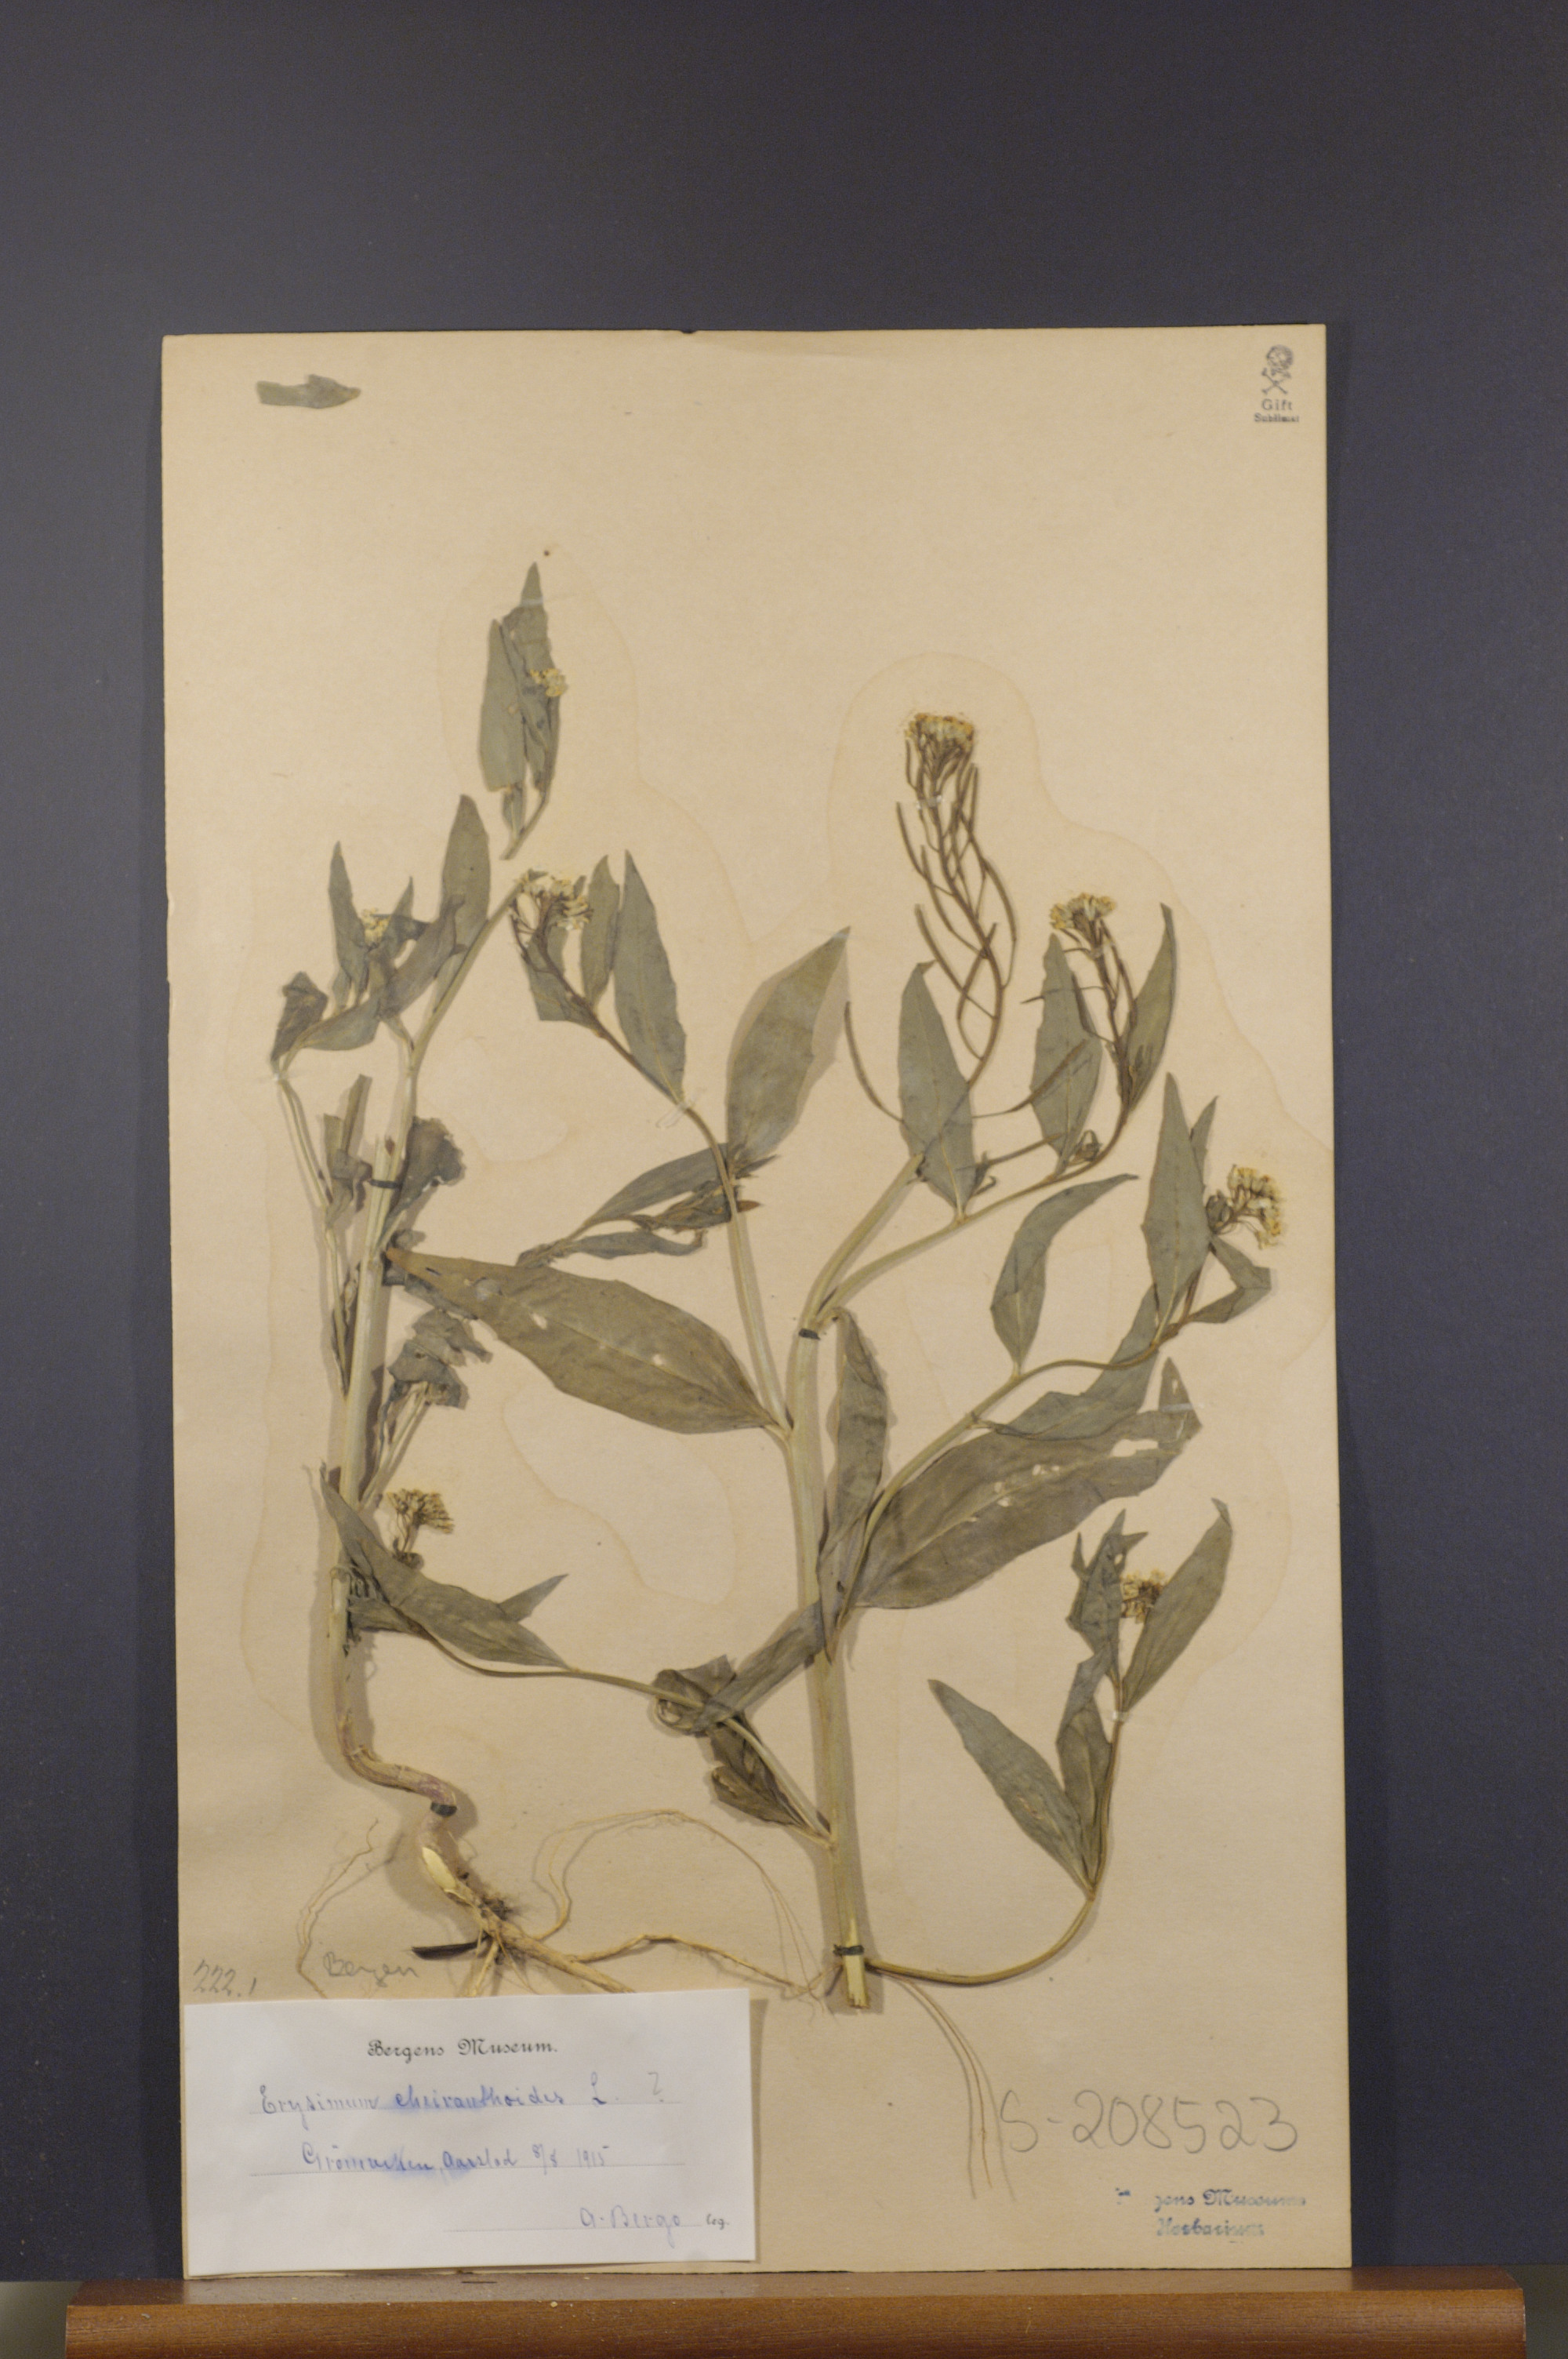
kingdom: Plantae
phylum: Tracheophyta
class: Magnoliopsida
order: Brassicales
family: Brassicaceae
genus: Erysimum
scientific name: Erysimum cheiranthoides
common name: Treacle mustard
